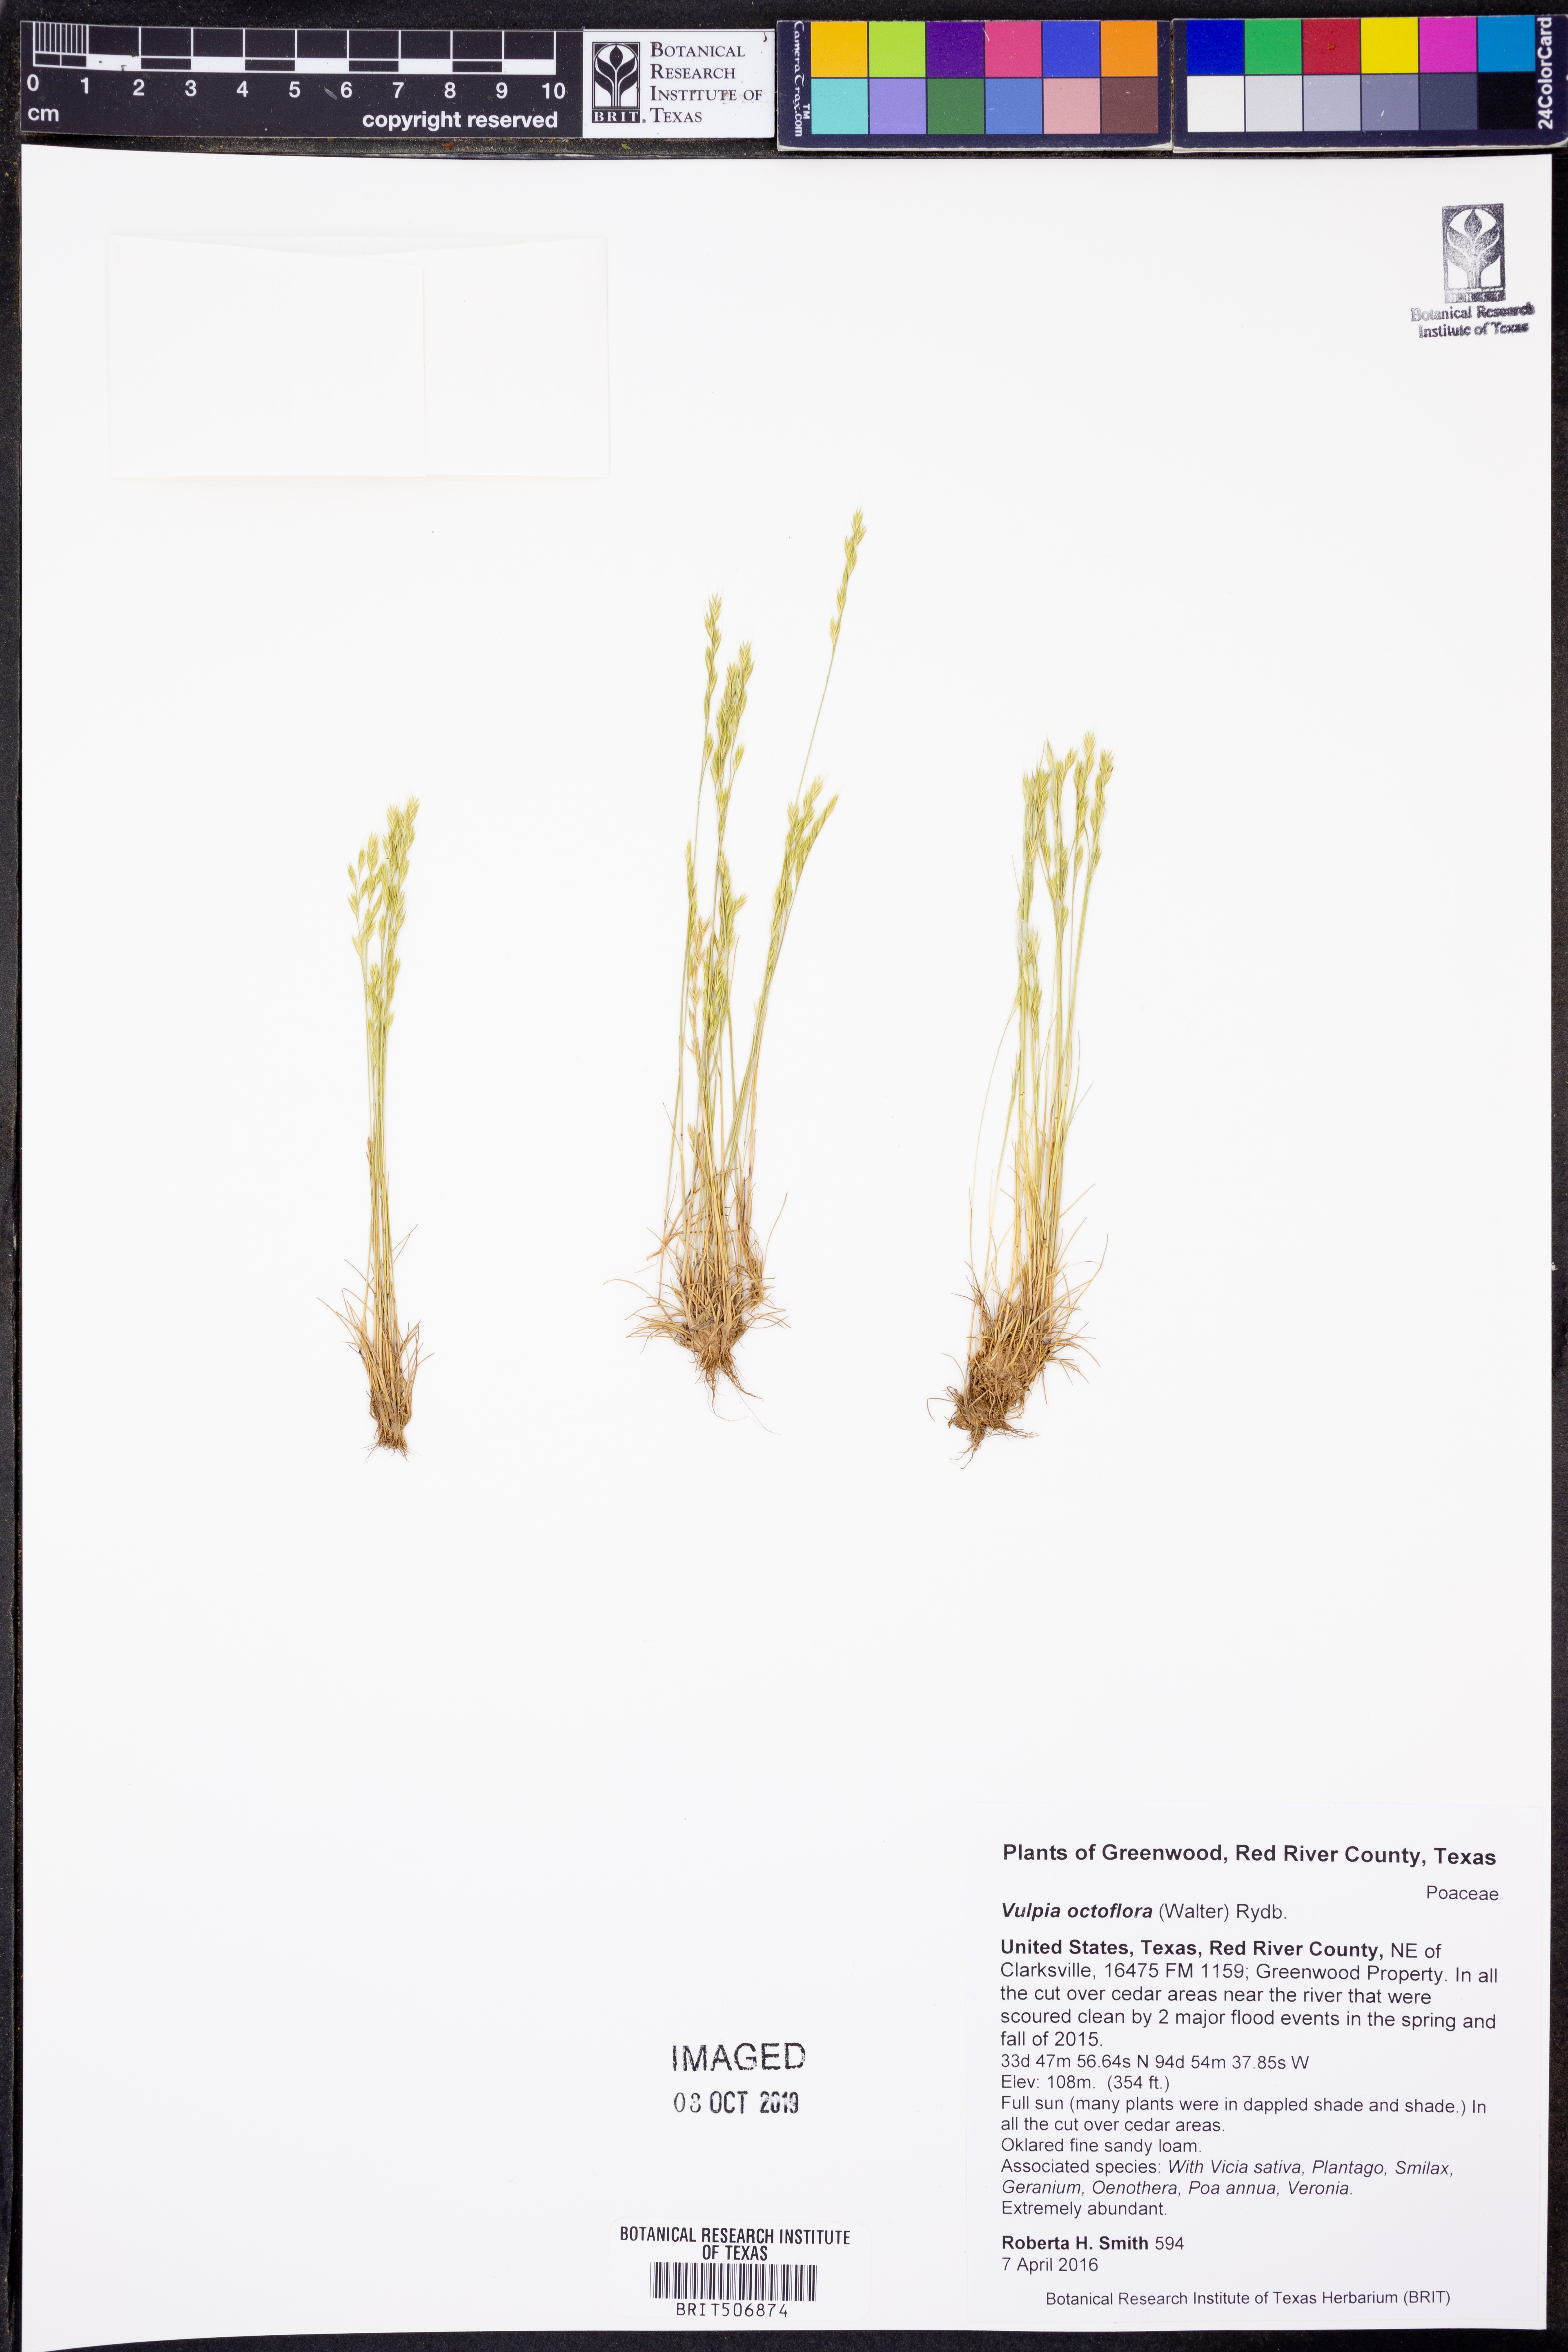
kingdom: Plantae
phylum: Tracheophyta
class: Liliopsida
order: Poales
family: Poaceae
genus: Festuca
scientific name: Festuca octoflora
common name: Sixweeks grass
